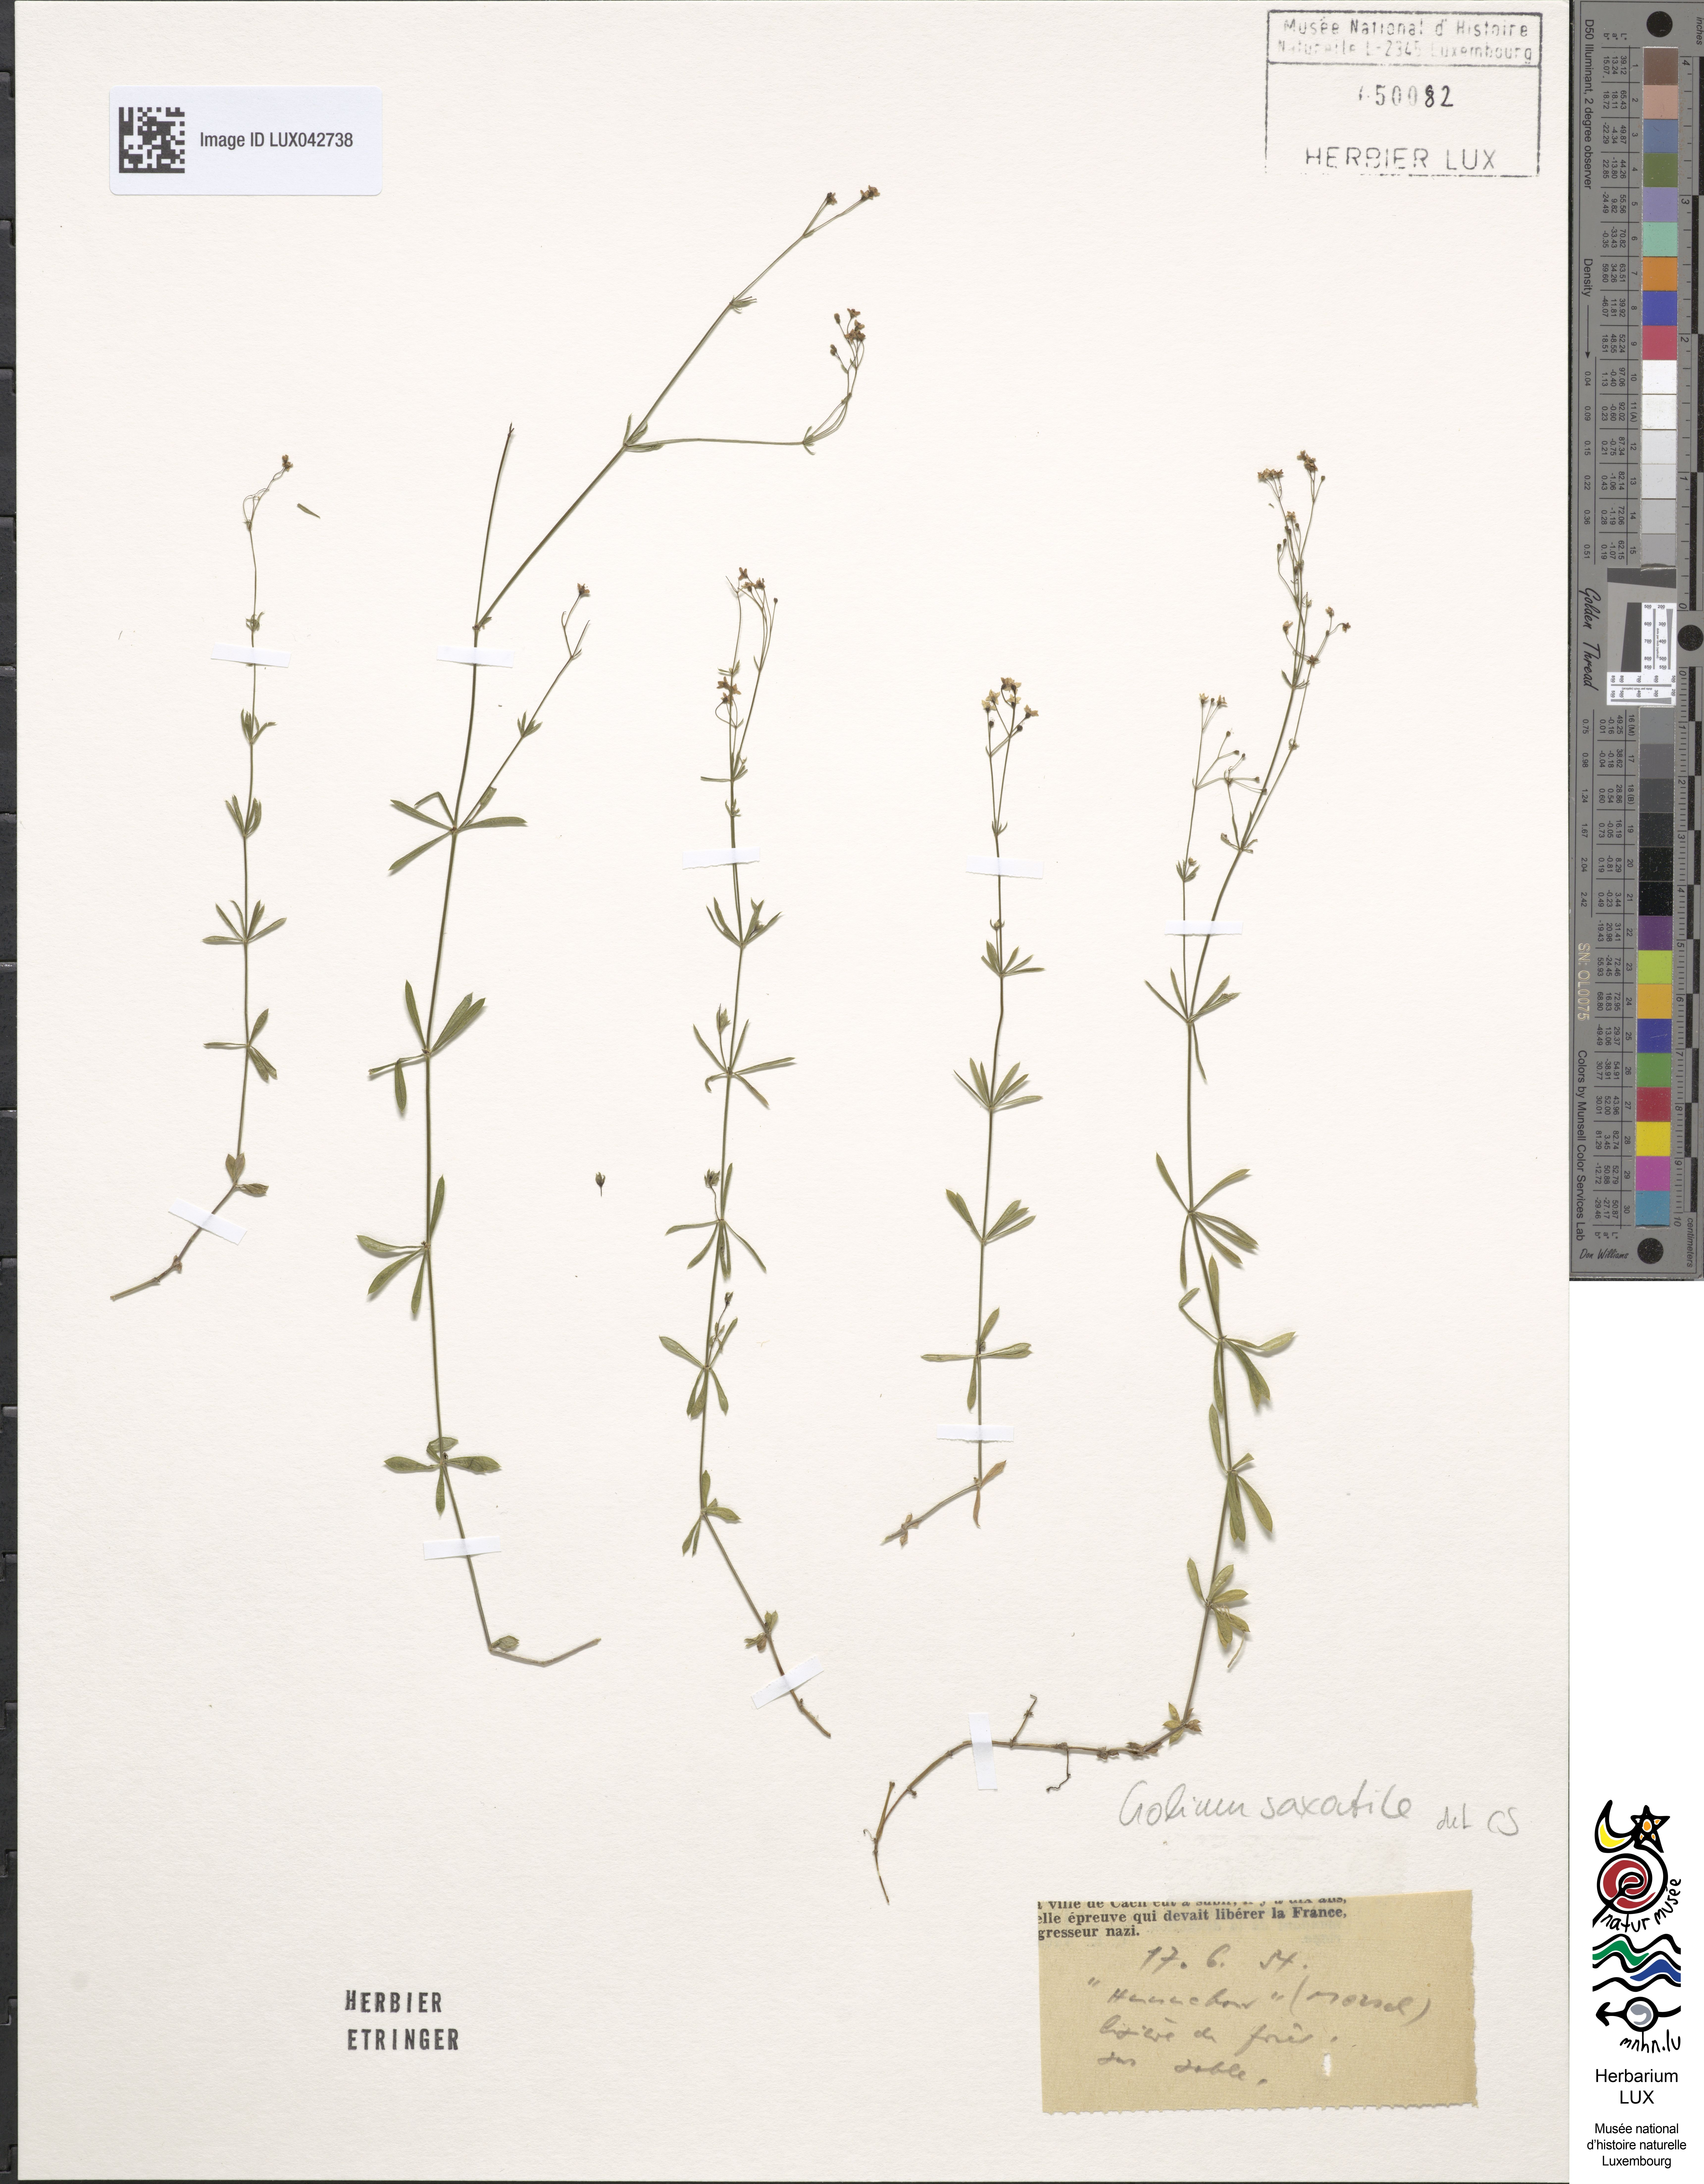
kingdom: Plantae
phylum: Tracheophyta
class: Magnoliopsida
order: Gentianales
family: Rubiaceae
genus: Galium
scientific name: Galium saxatile
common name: Heath bedstraw
